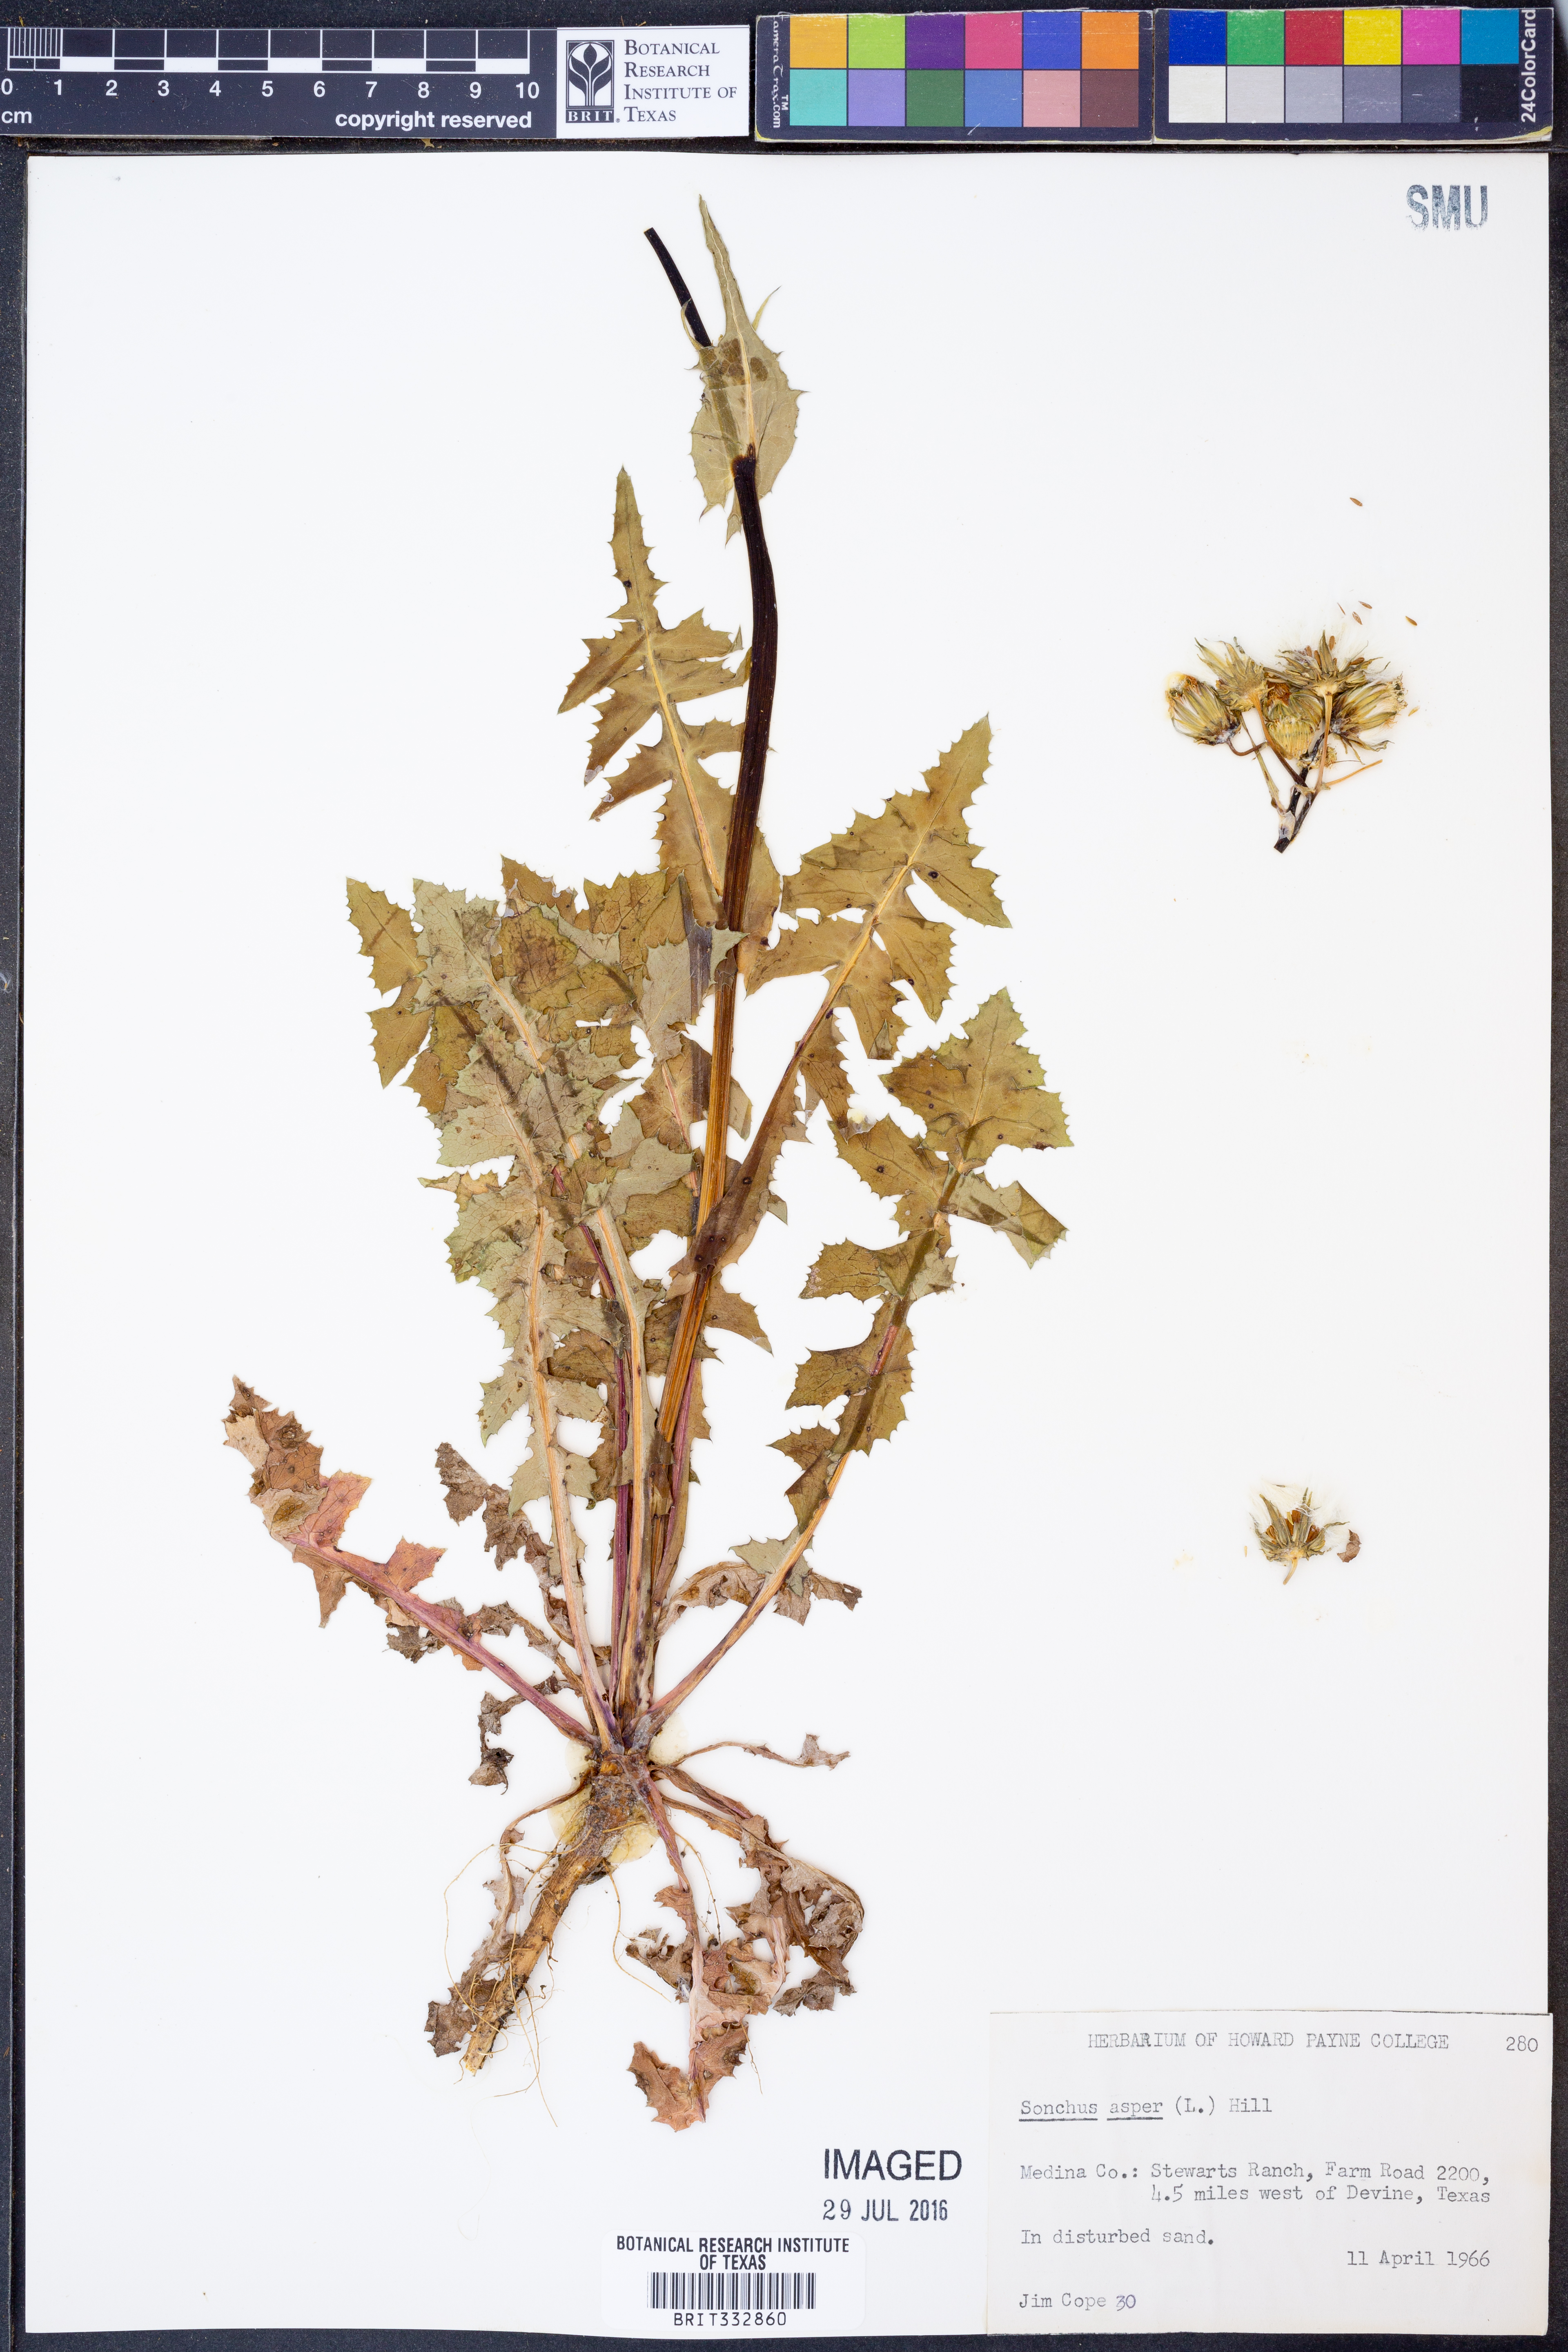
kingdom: Plantae
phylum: Tracheophyta
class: Magnoliopsida
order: Asterales
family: Asteraceae
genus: Sonchus
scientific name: Sonchus asper
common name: Prickly sow-thistle
